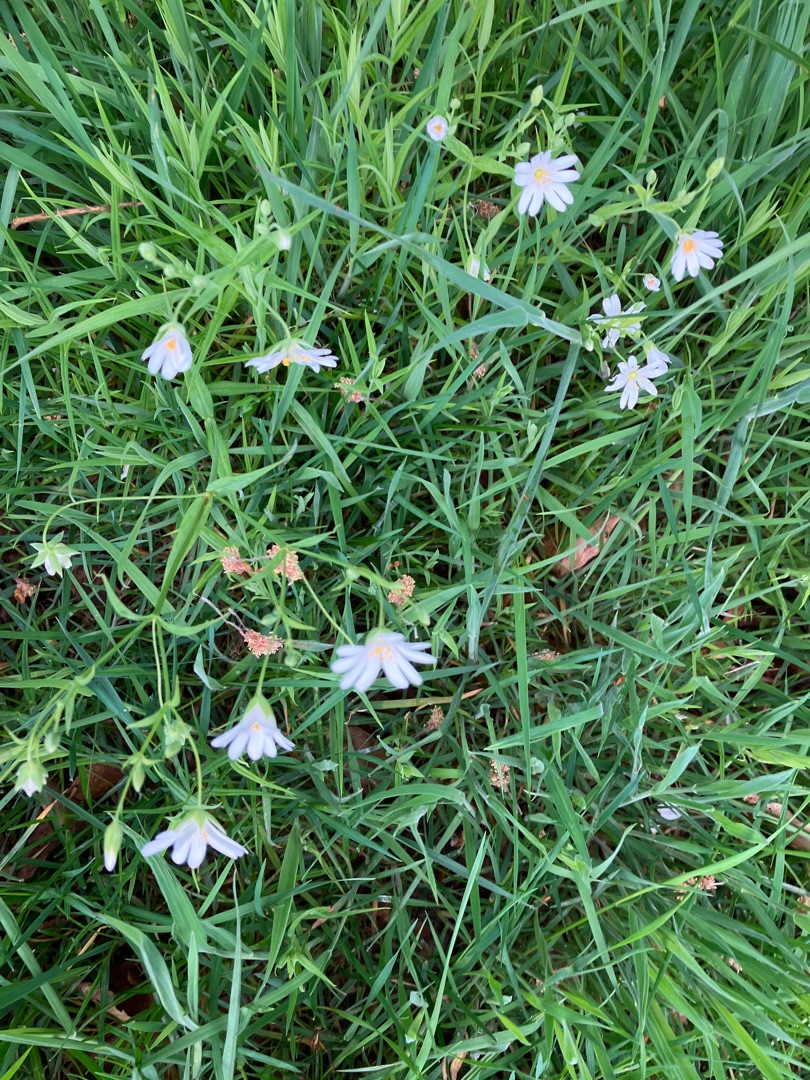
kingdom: Plantae
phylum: Tracheophyta
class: Magnoliopsida
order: Caryophyllales
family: Caryophyllaceae
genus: Rabelera
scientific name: Rabelera holostea
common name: Stor fladstjerne
